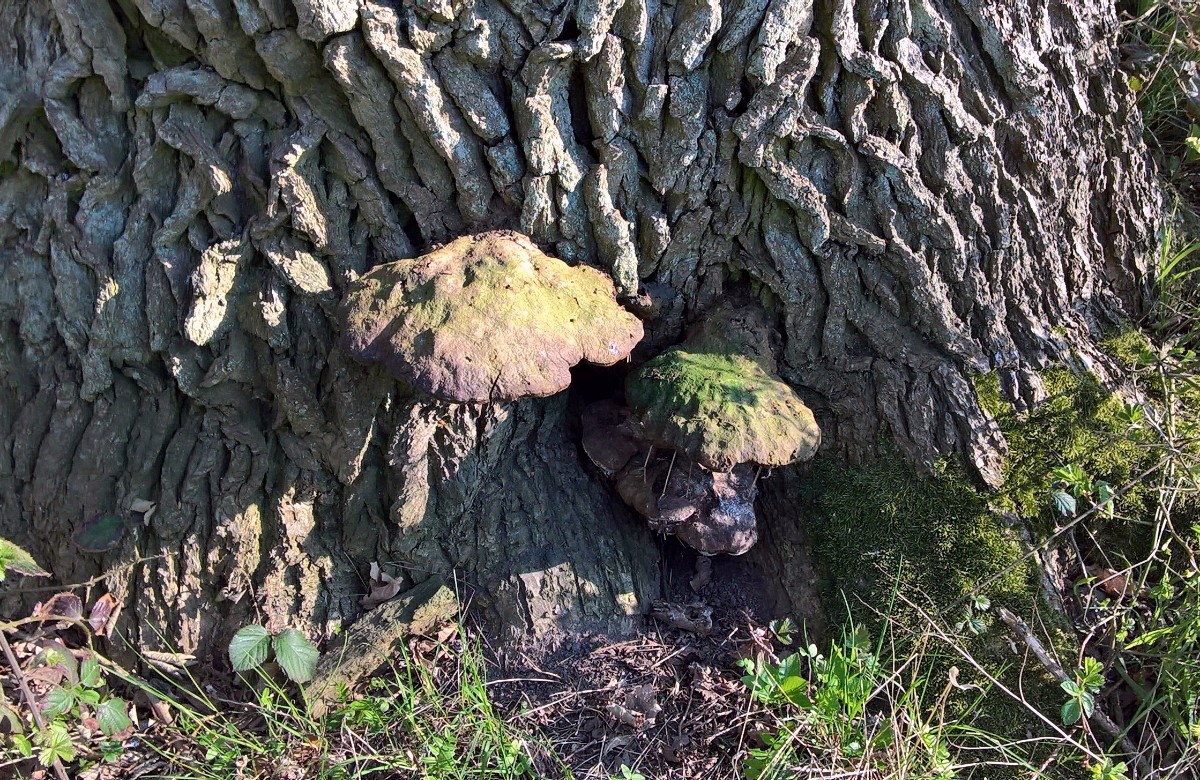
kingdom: Fungi
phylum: Basidiomycota
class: Agaricomycetes
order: Hymenochaetales
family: Hymenochaetaceae
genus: Pseudoinonotus
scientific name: Pseudoinonotus dryadeus
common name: ege-spejlporesvamp
